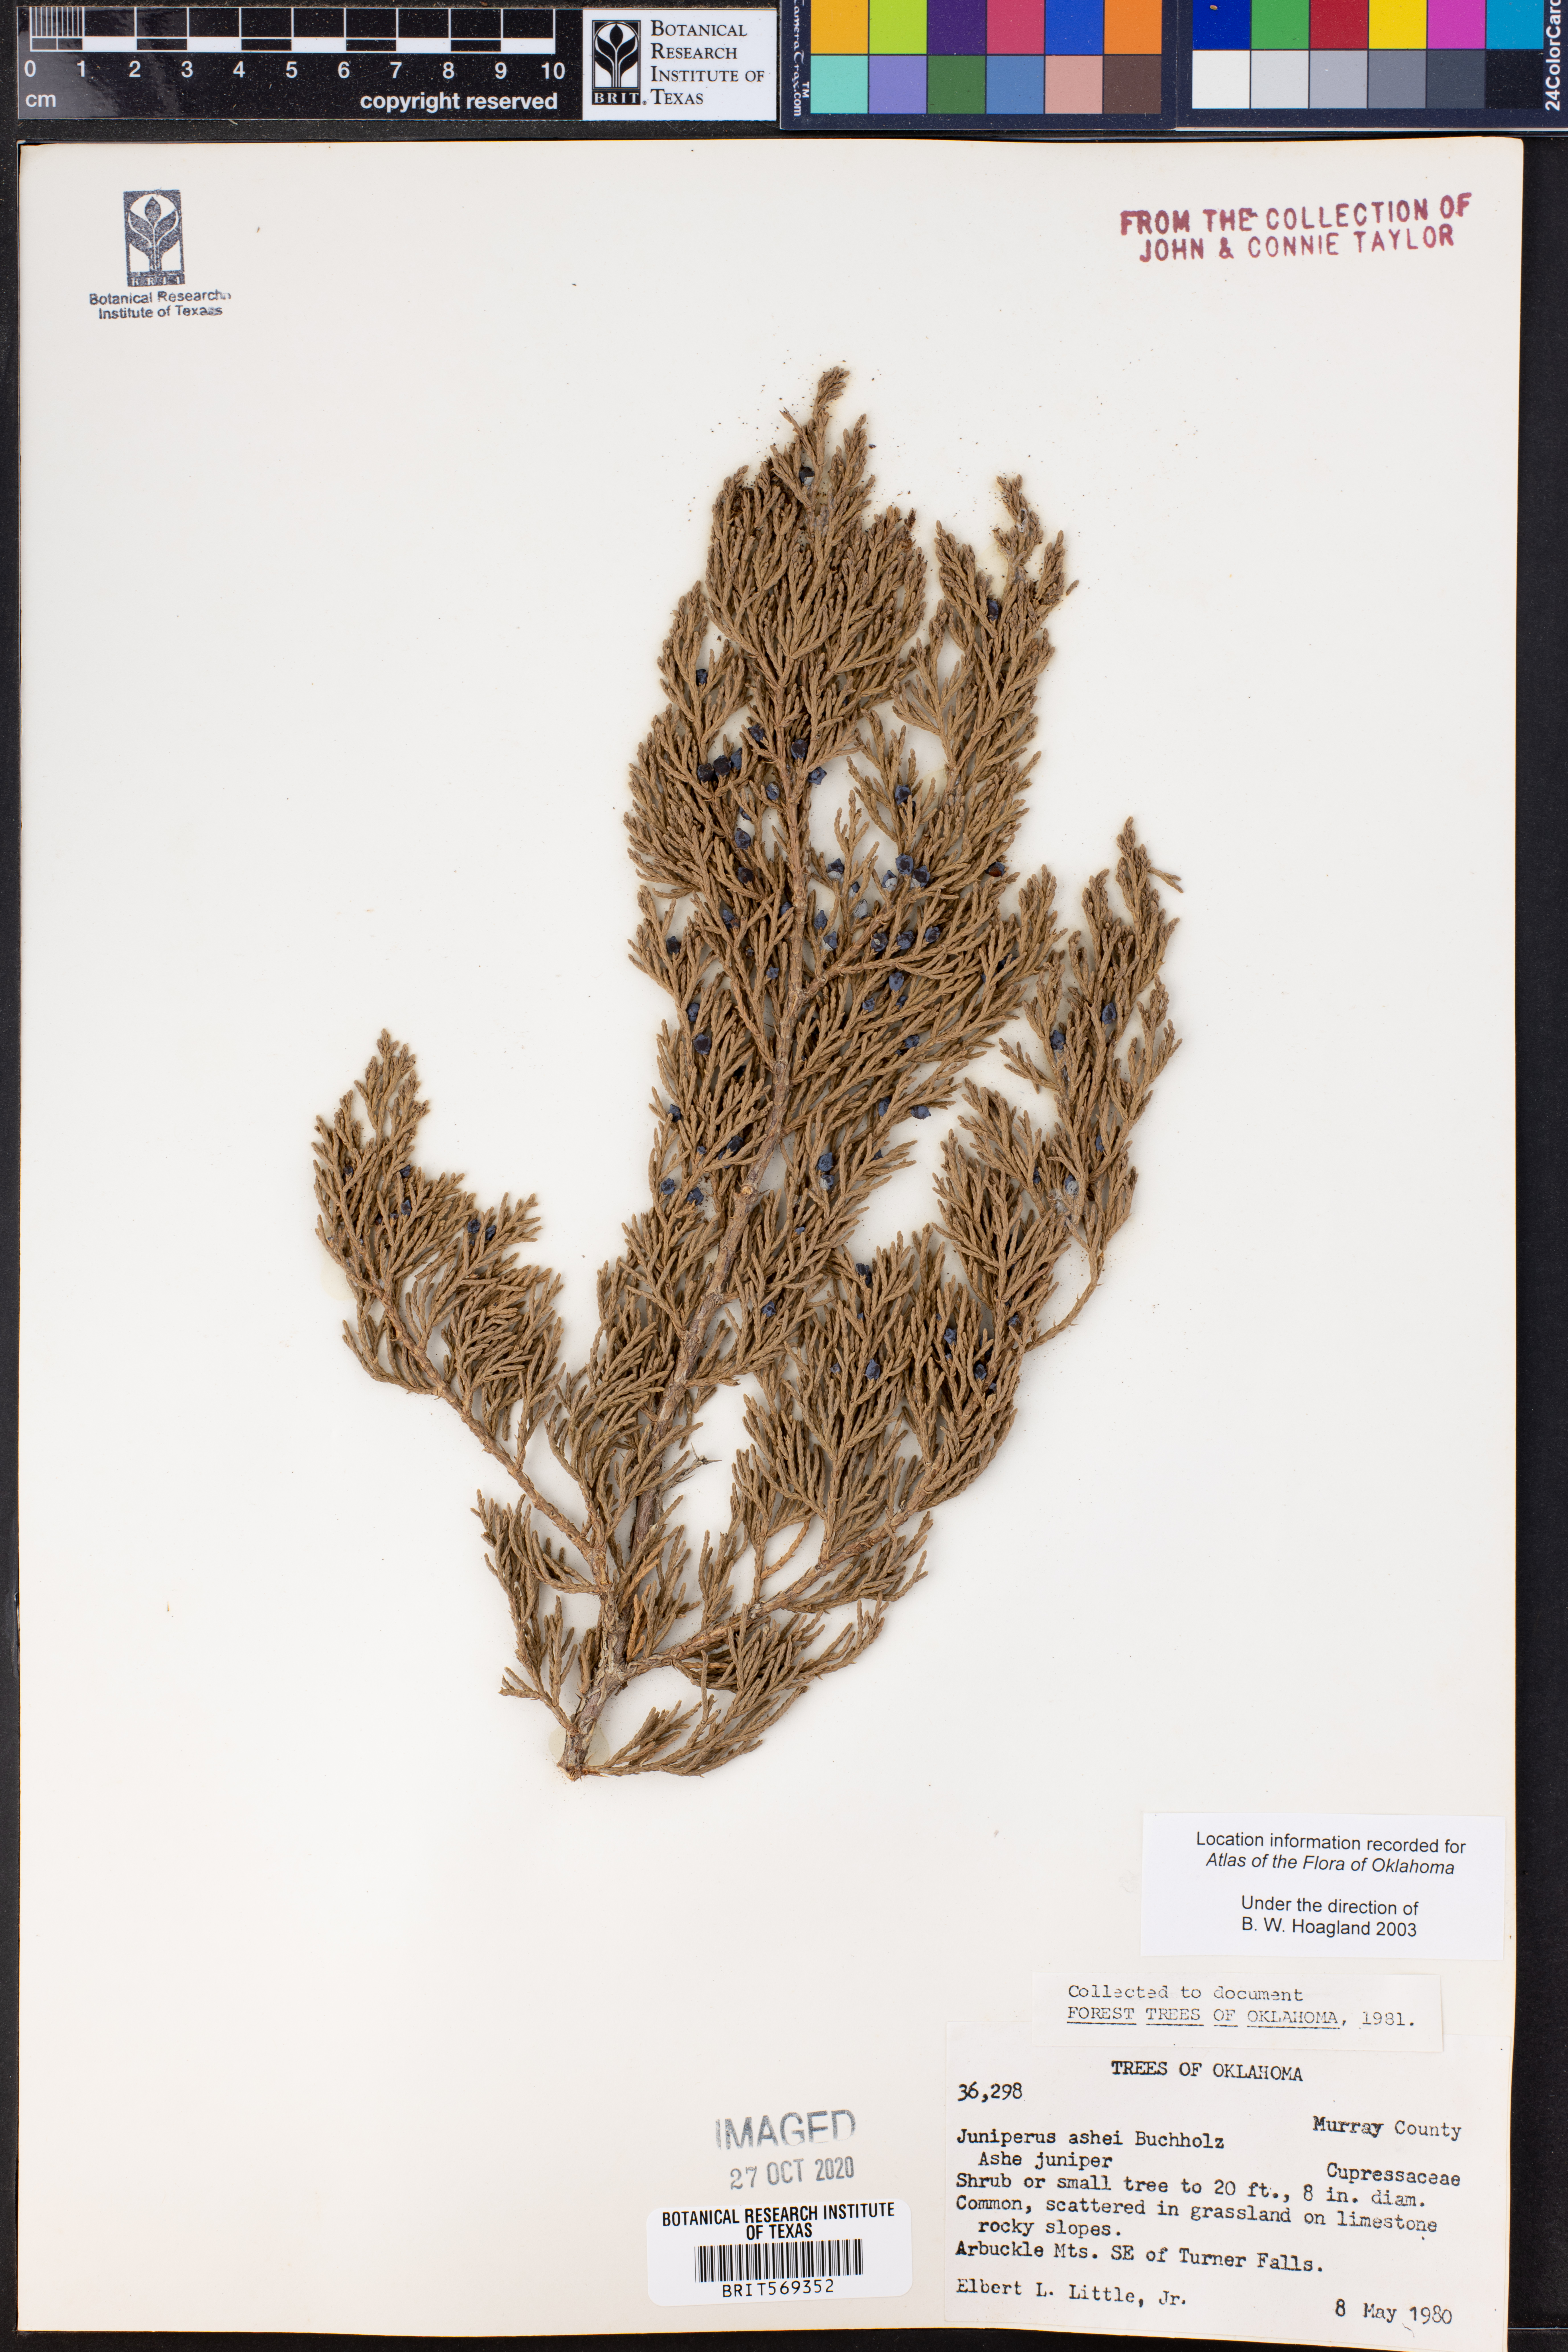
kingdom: Plantae
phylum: Tracheophyta
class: Pinopsida
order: Pinales
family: Cupressaceae
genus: Juniperus
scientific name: Juniperus ashei
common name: Mexican juniper
